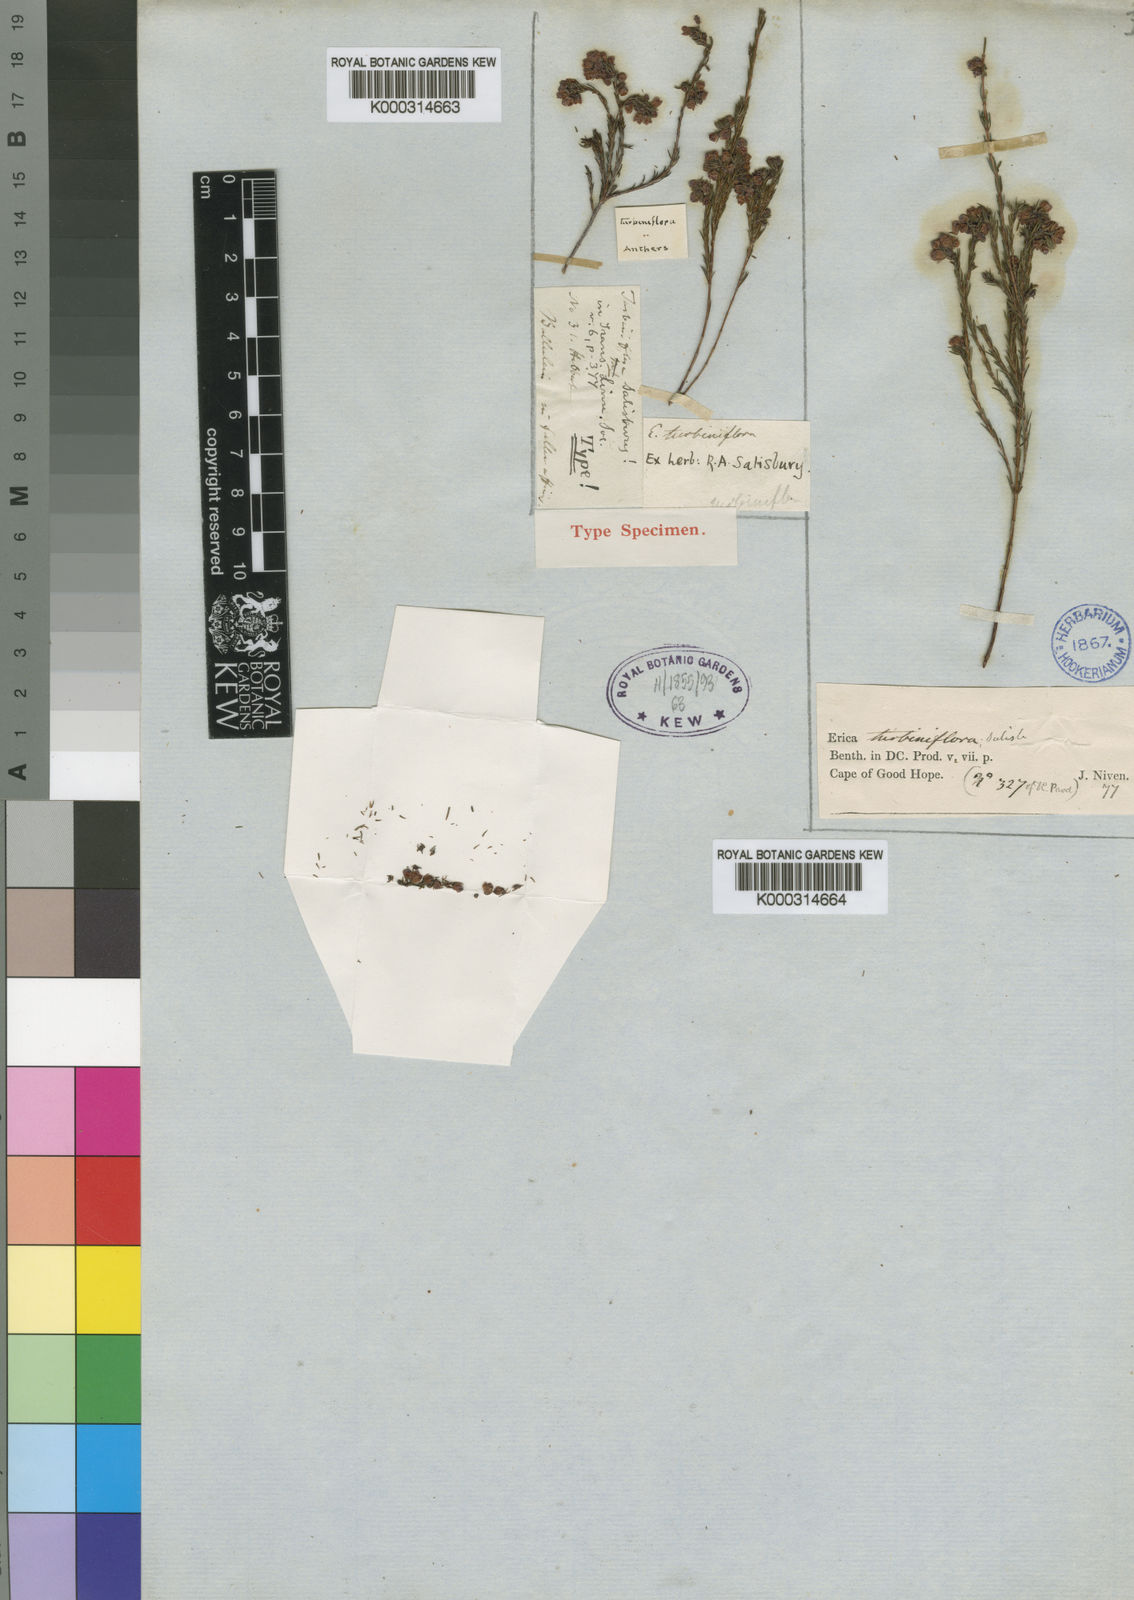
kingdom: Plantae
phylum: Tracheophyta
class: Magnoliopsida
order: Ericales
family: Ericaceae
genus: Erica
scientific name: Erica turbiniflora
